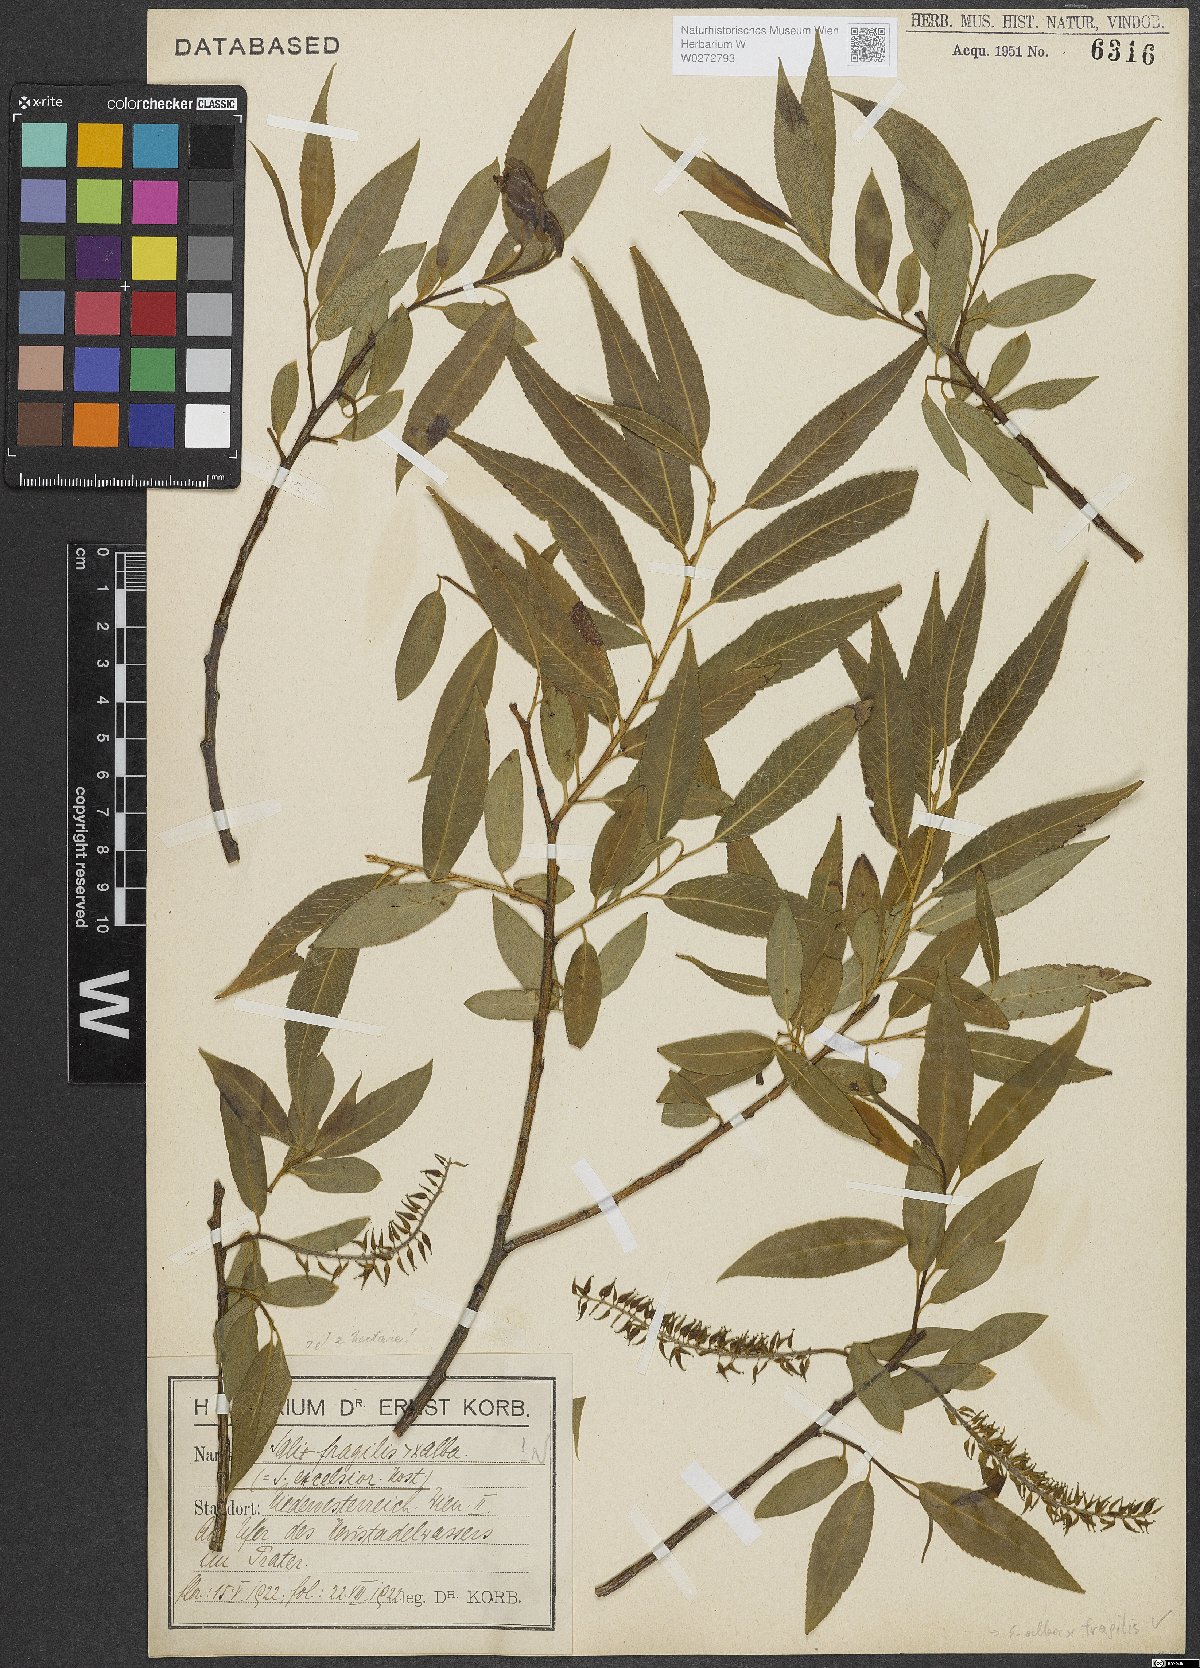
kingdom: Plantae
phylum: Tracheophyta
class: Magnoliopsida
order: Malpighiales
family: Salicaceae
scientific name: Salicaceae
